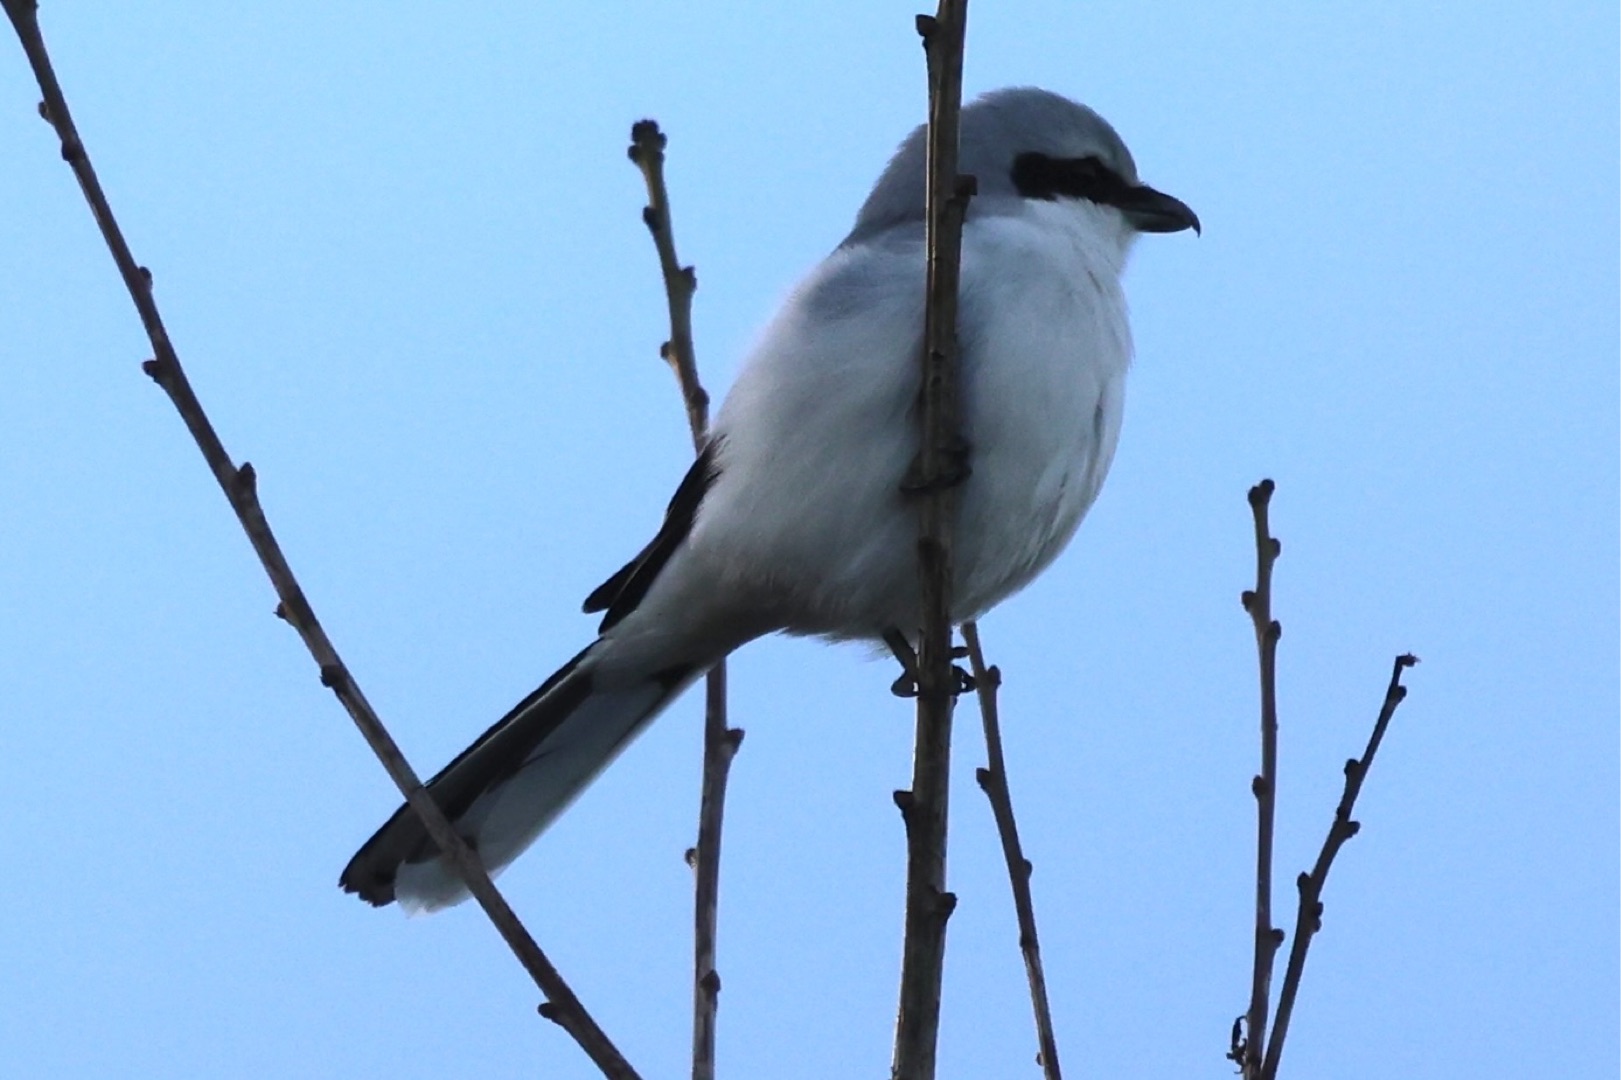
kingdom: Animalia
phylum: Chordata
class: Aves
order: Passeriformes
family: Laniidae
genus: Lanius
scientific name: Lanius excubitor
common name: Stor tornskade
